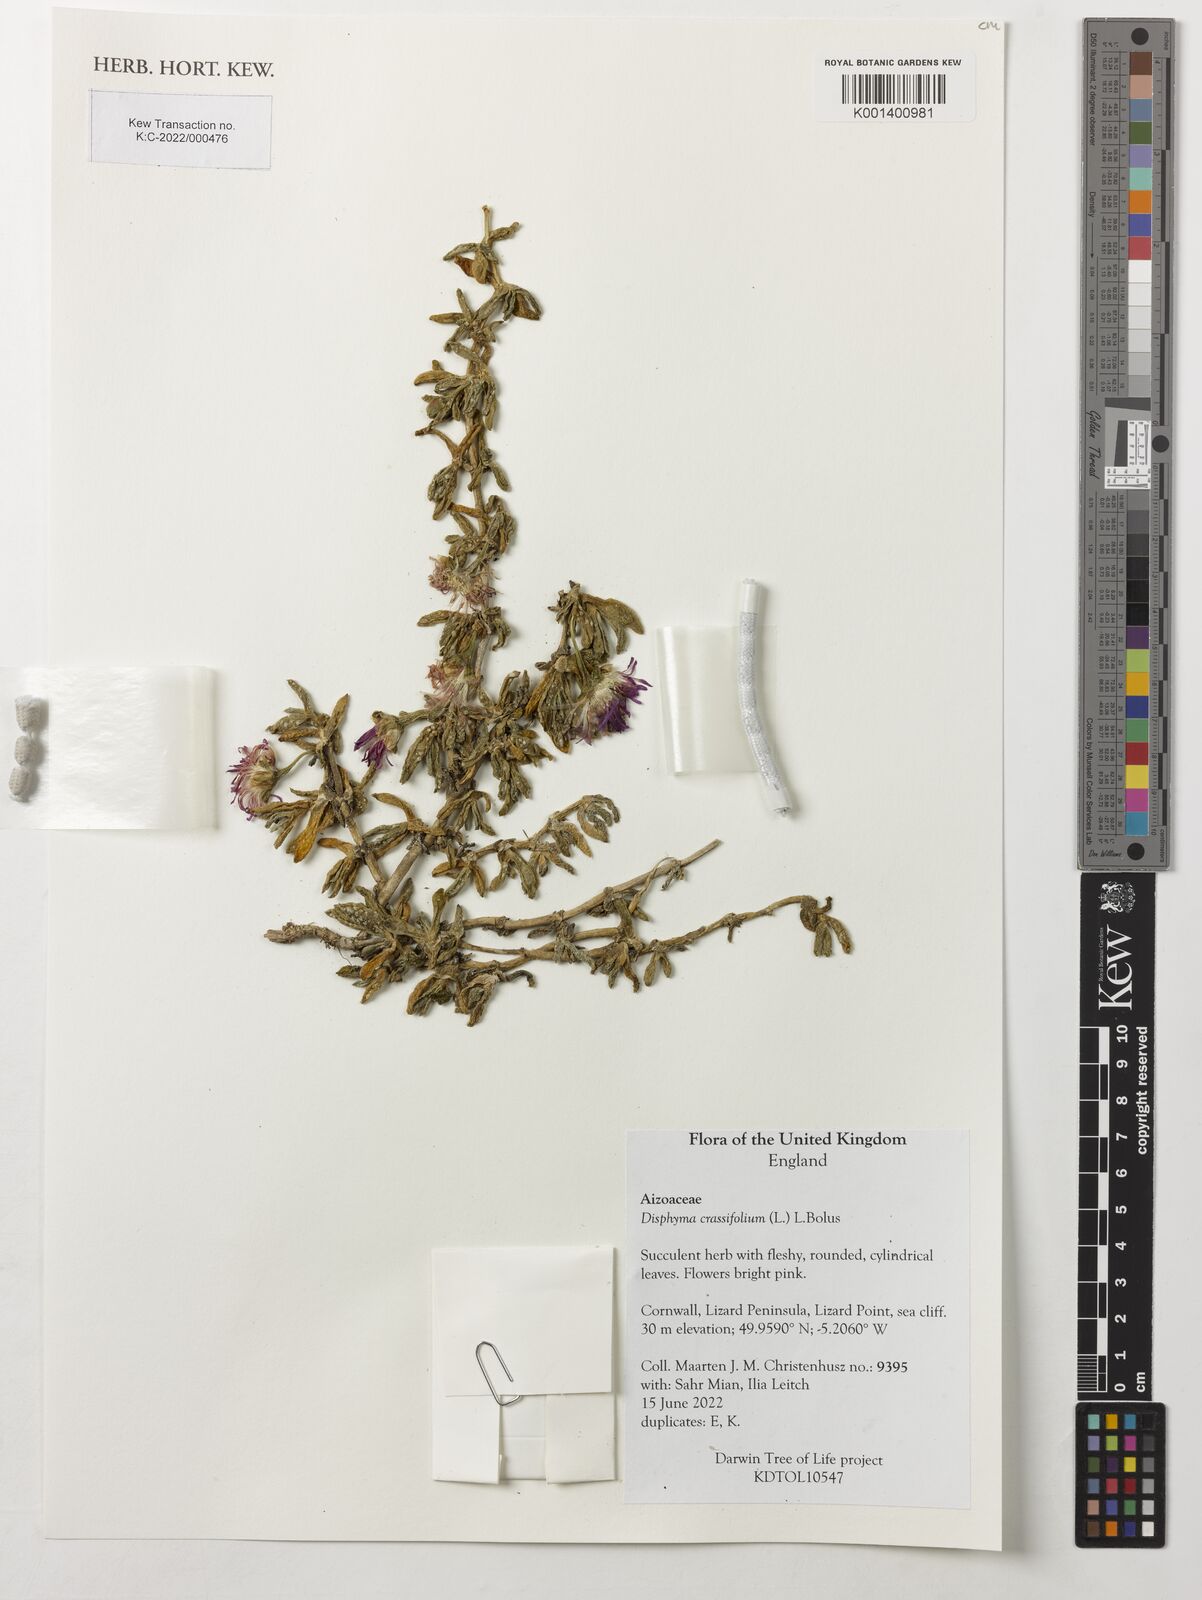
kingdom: Plantae
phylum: Tracheophyta
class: Magnoliopsida
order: Caryophyllales
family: Aizoaceae
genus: Disphyma
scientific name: Disphyma crassifolium
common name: Purple dewplant
